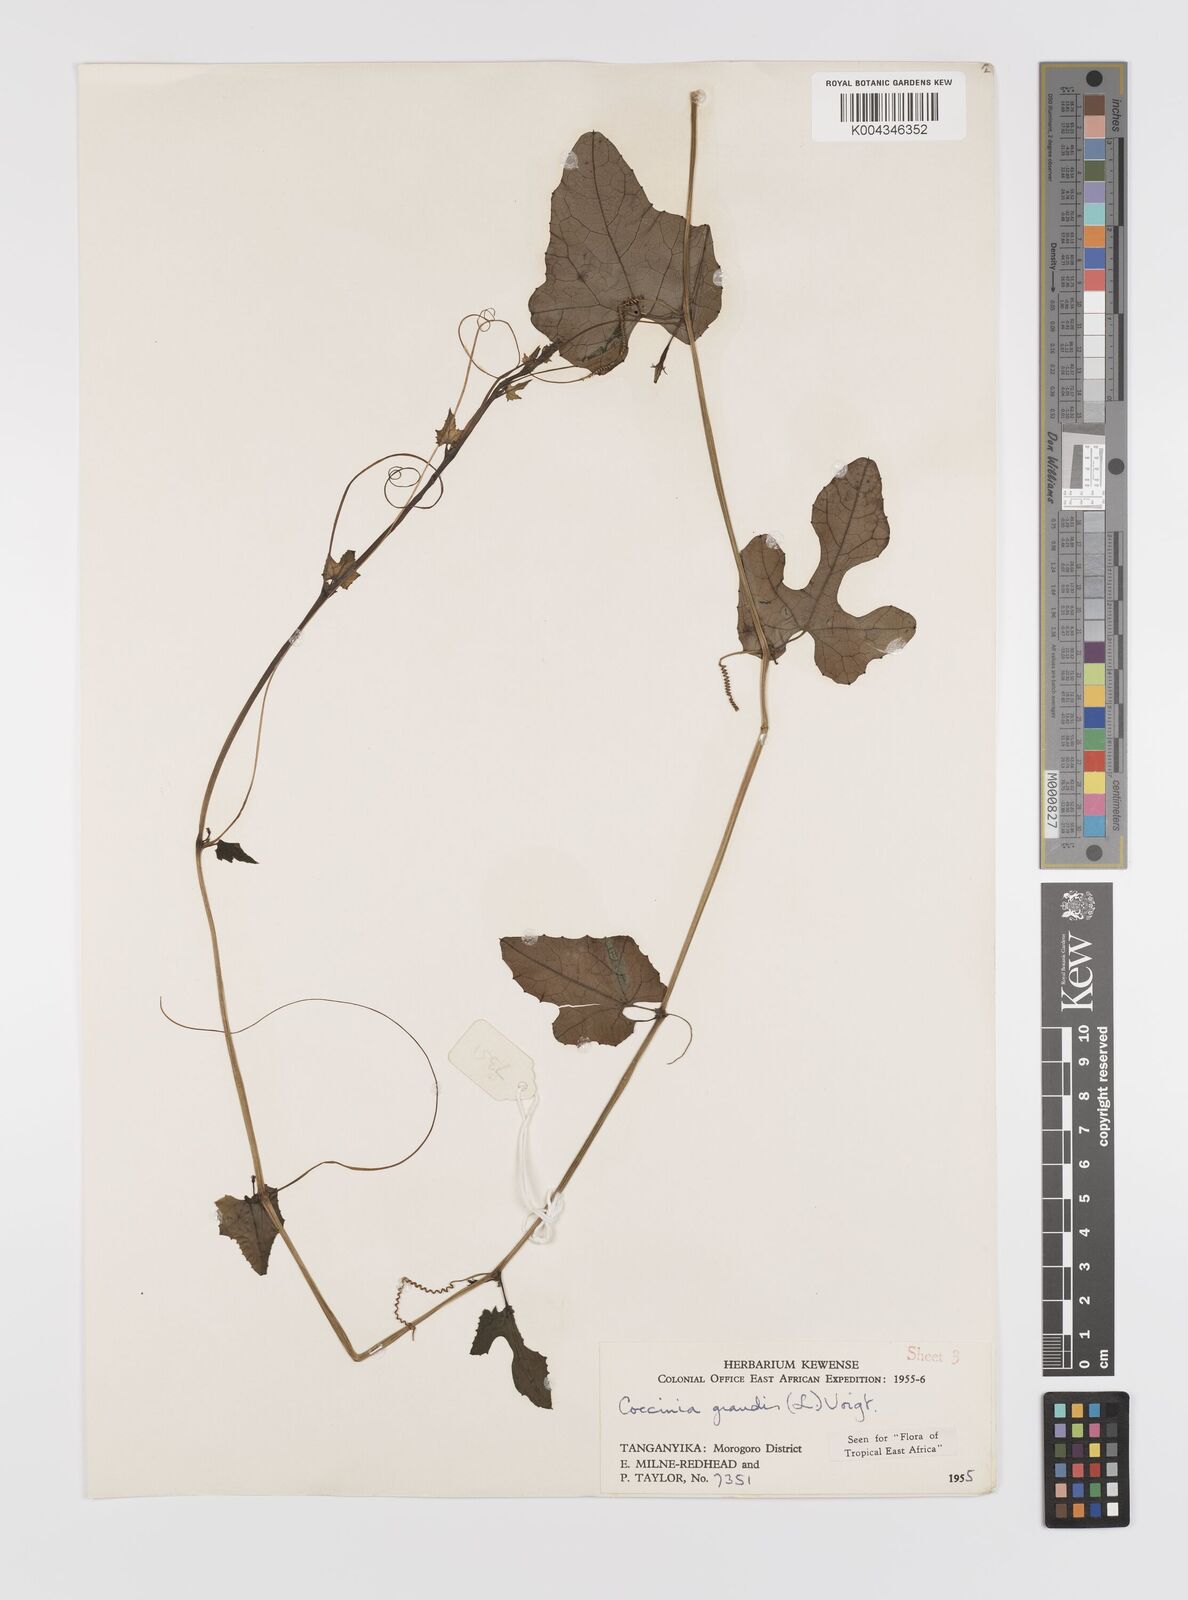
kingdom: Plantae
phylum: Tracheophyta
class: Magnoliopsida
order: Cucurbitales
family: Cucurbitaceae
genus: Coccinia
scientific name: Coccinia grandis
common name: Ivy gourd
